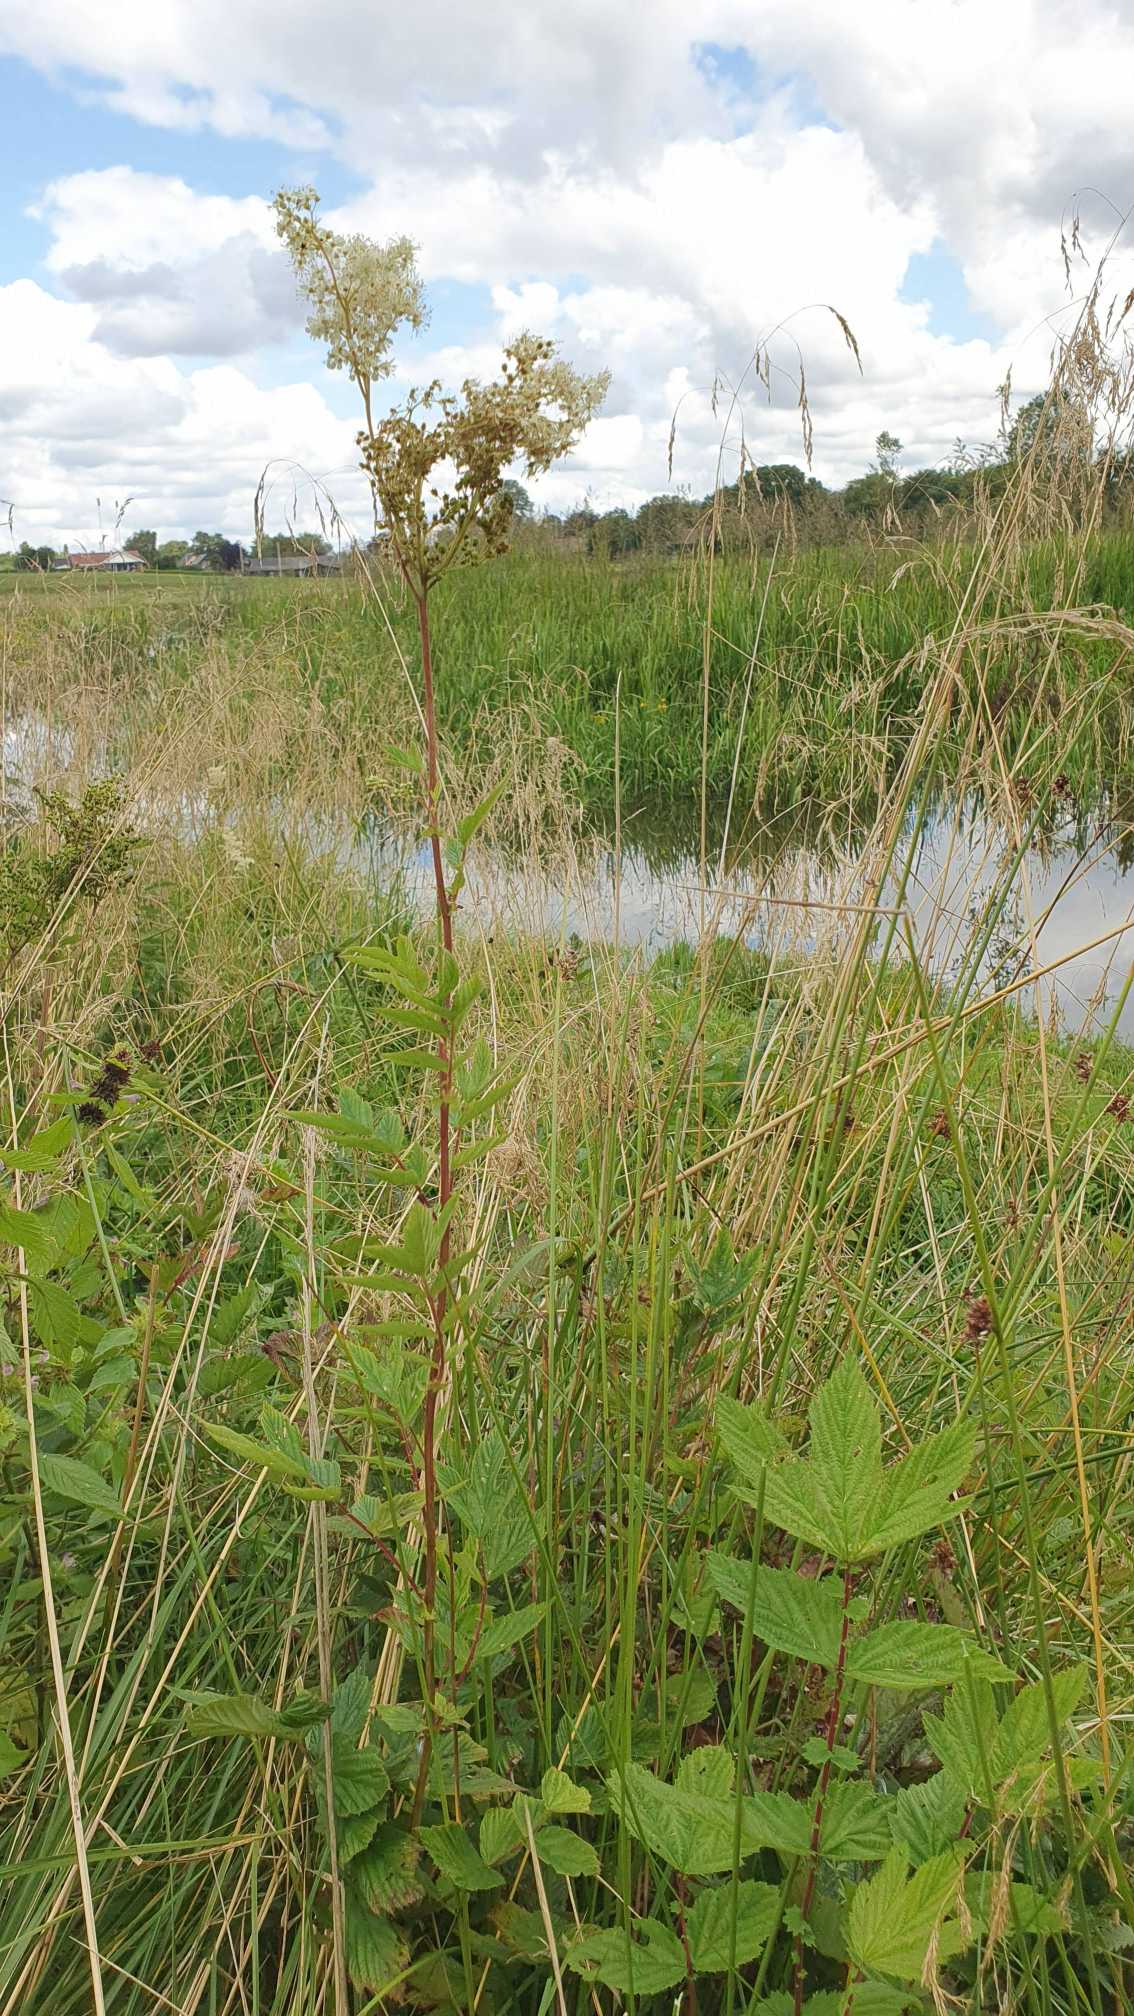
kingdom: Plantae
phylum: Tracheophyta
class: Magnoliopsida
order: Rosales
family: Rosaceae
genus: Filipendula
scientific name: Filipendula ulmaria
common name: Almindelig mjødurt
